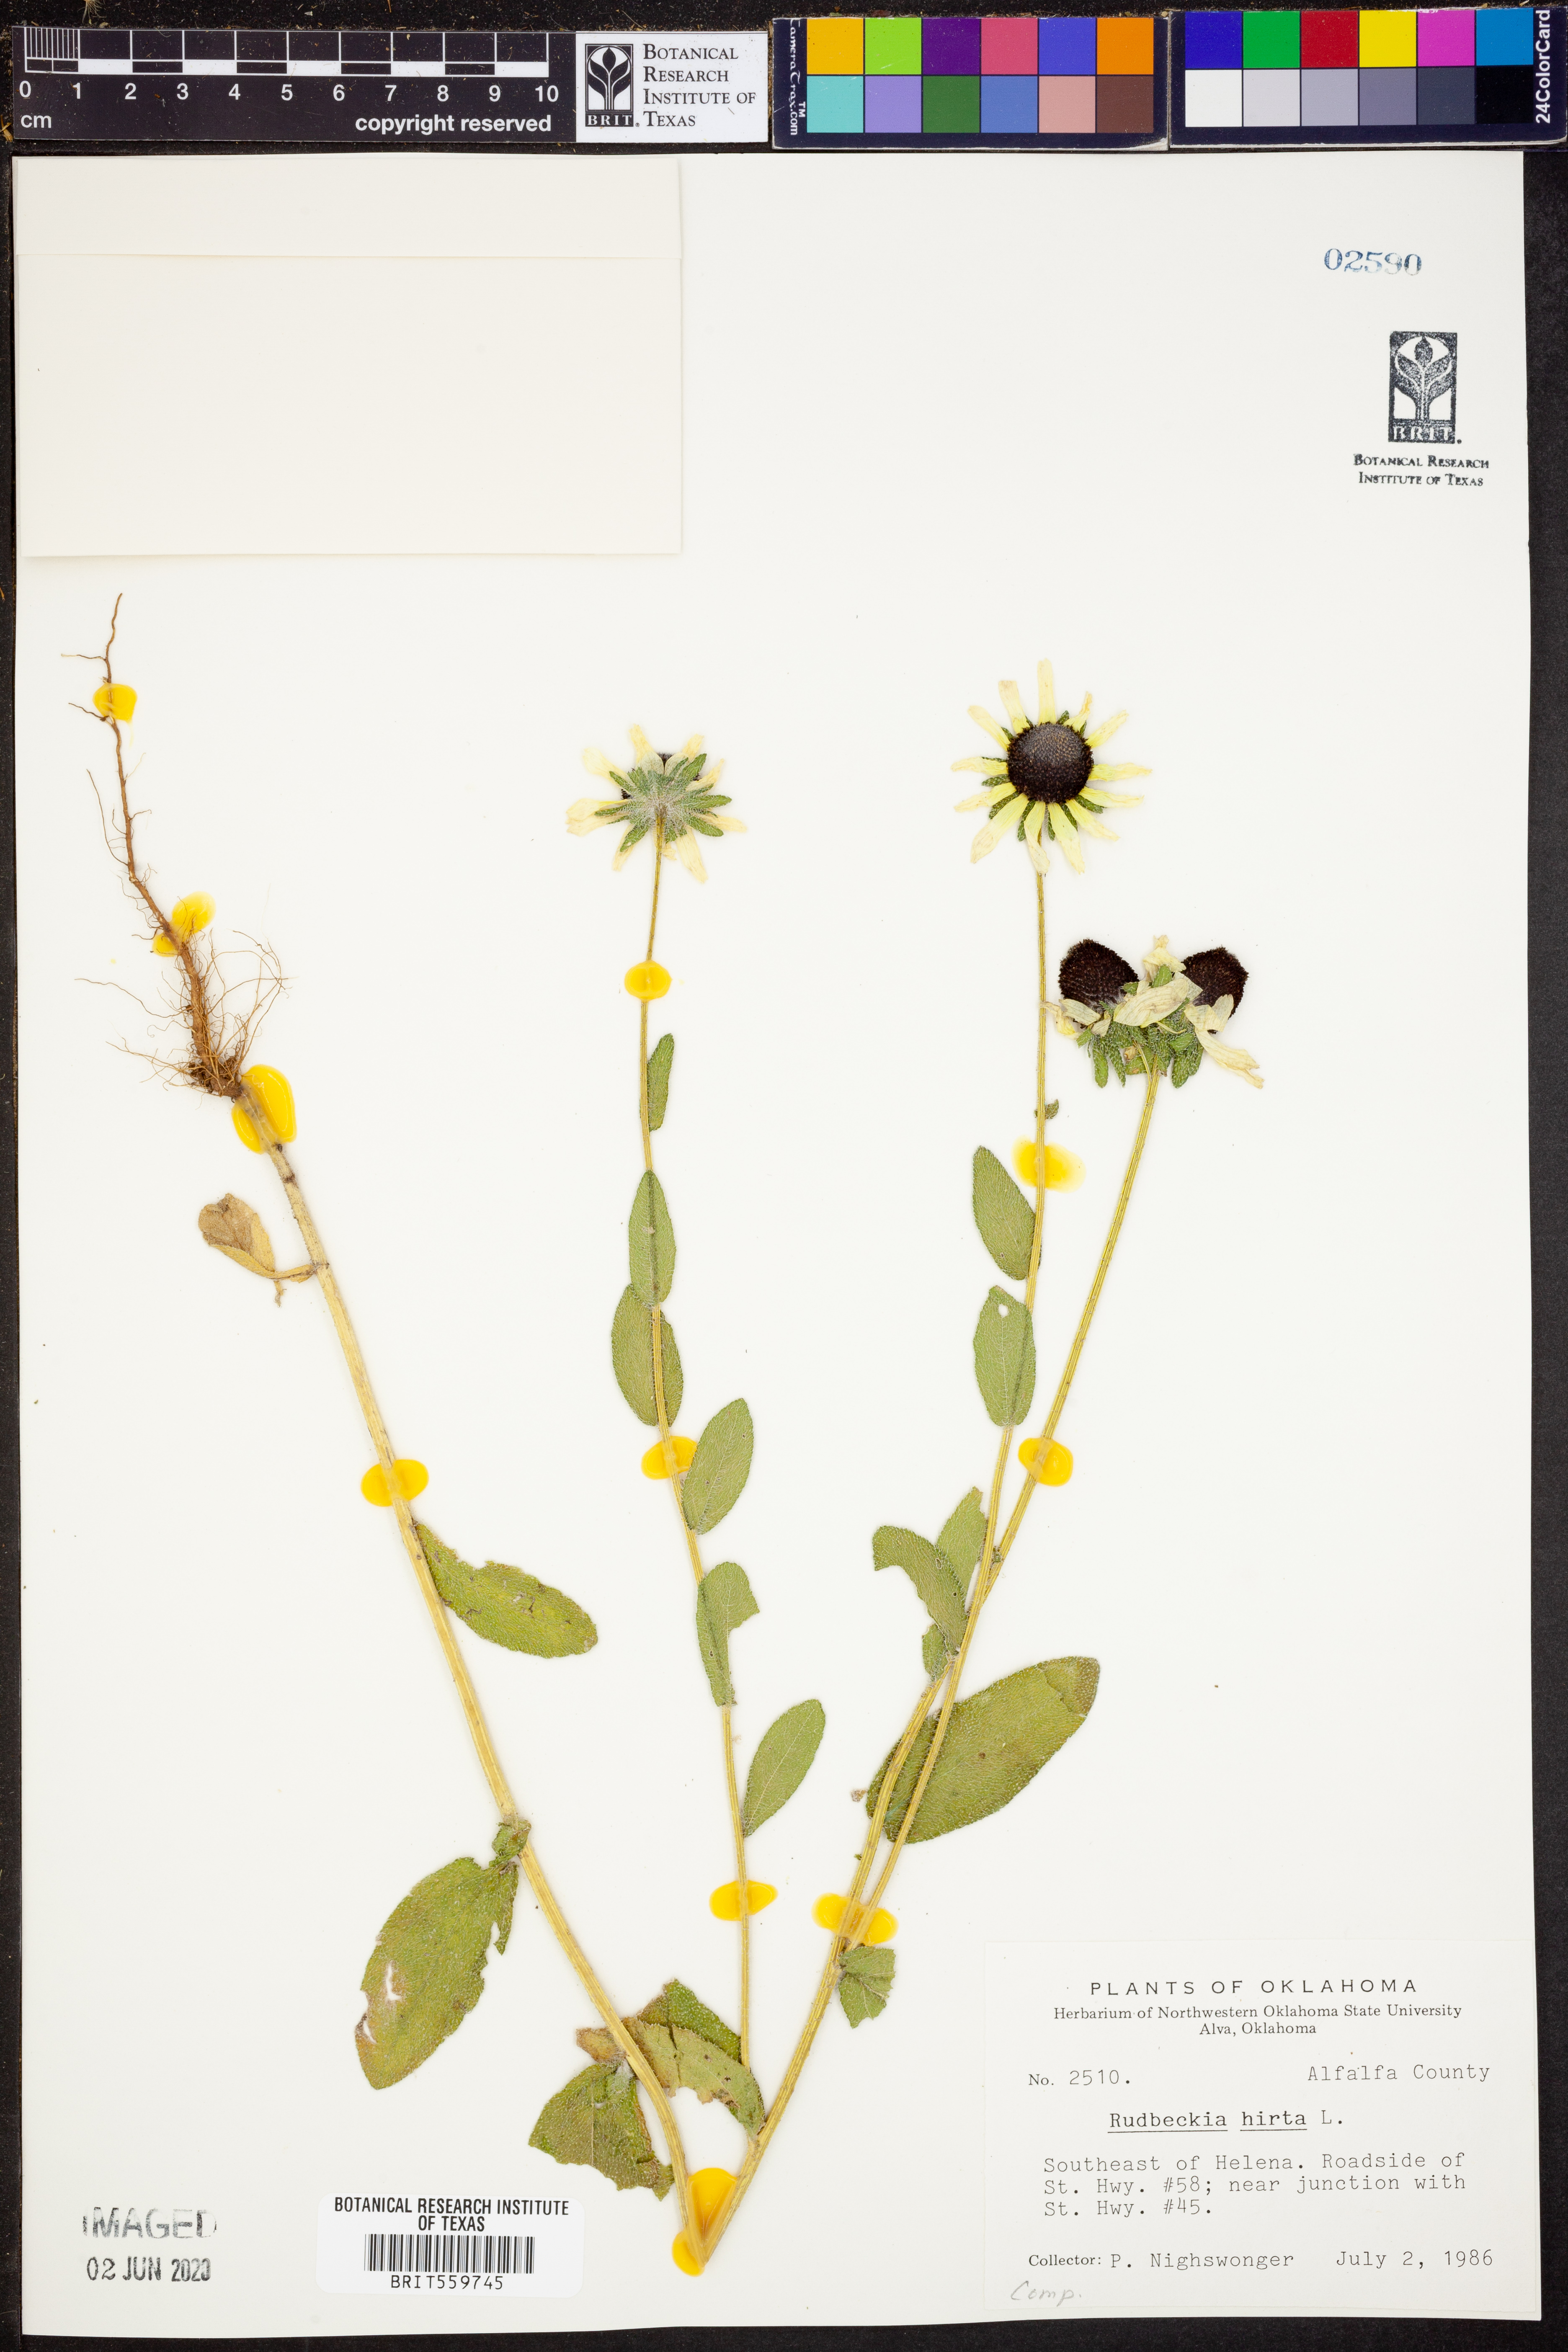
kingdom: Plantae
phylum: Tracheophyta
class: Magnoliopsida
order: Asterales
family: Asteraceae
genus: Rudbeckia
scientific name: Rudbeckia hirta
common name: Black-eyed-susan
